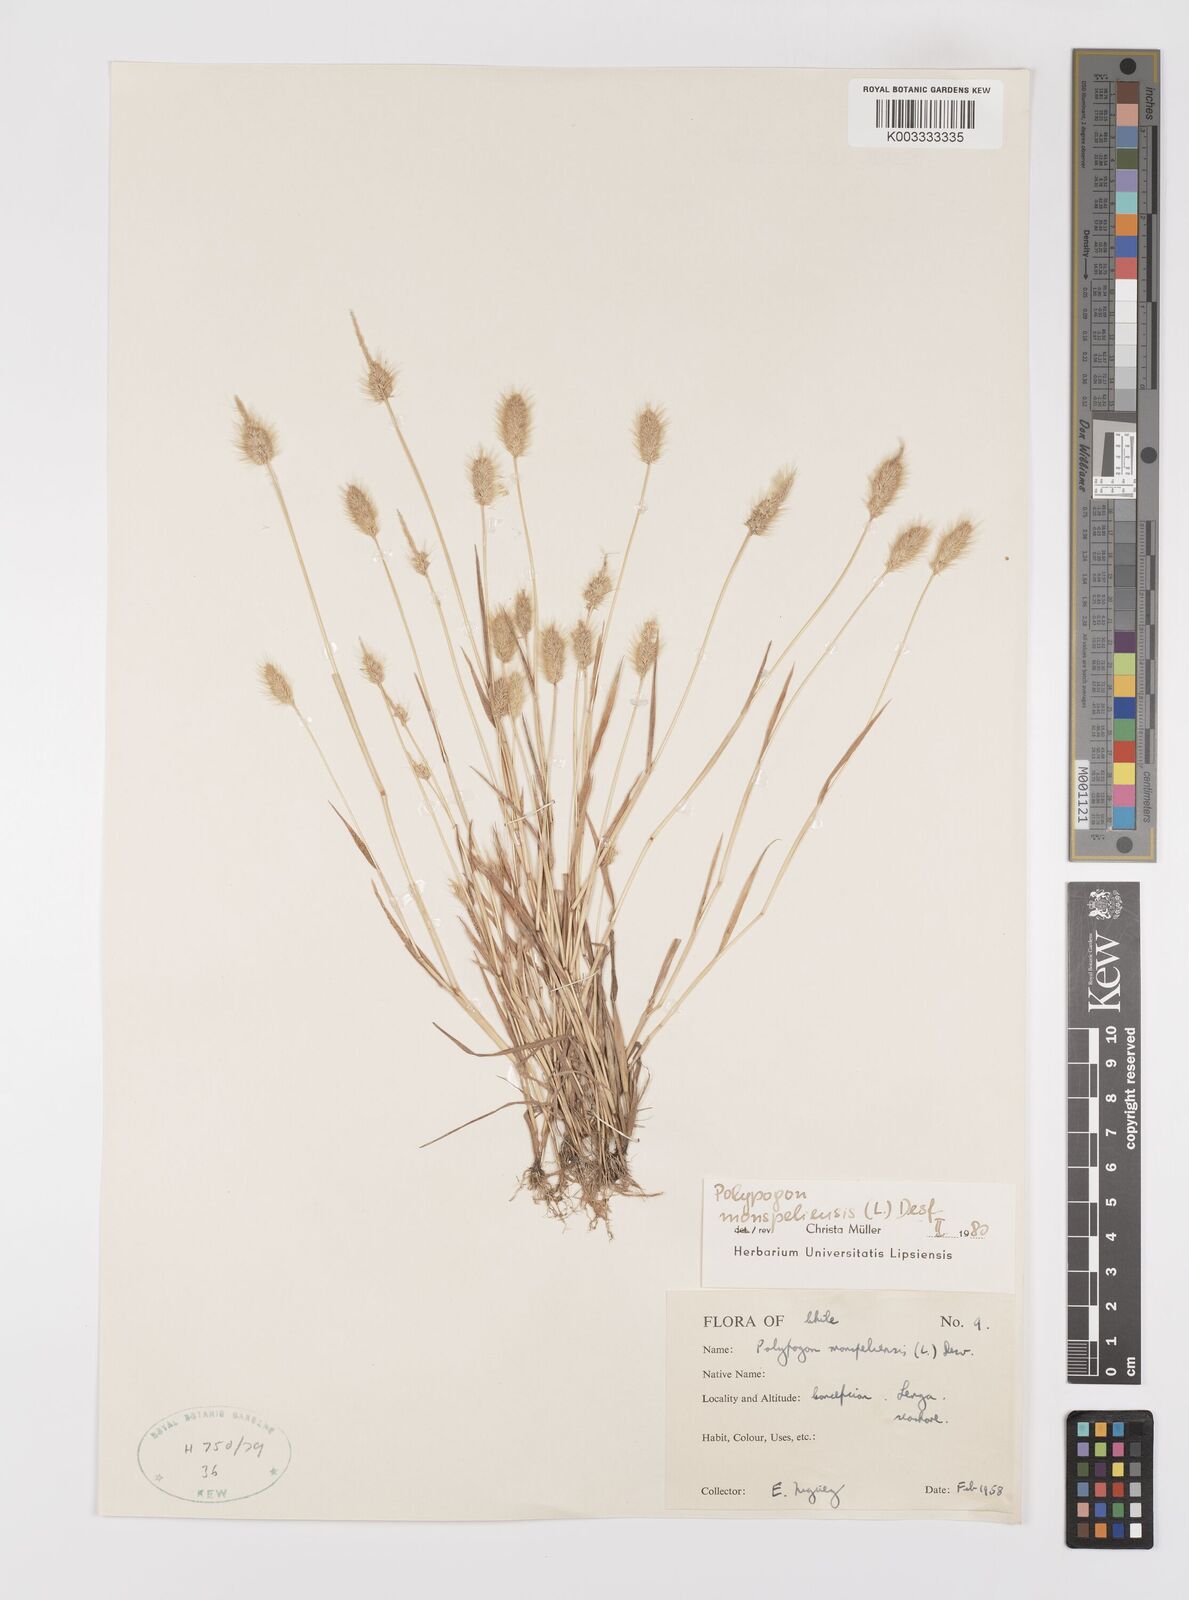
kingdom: Plantae
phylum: Tracheophyta
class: Liliopsida
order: Poales
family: Poaceae
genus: Polypogon
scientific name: Polypogon monspeliensis
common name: Annual rabbitsfoot grass
